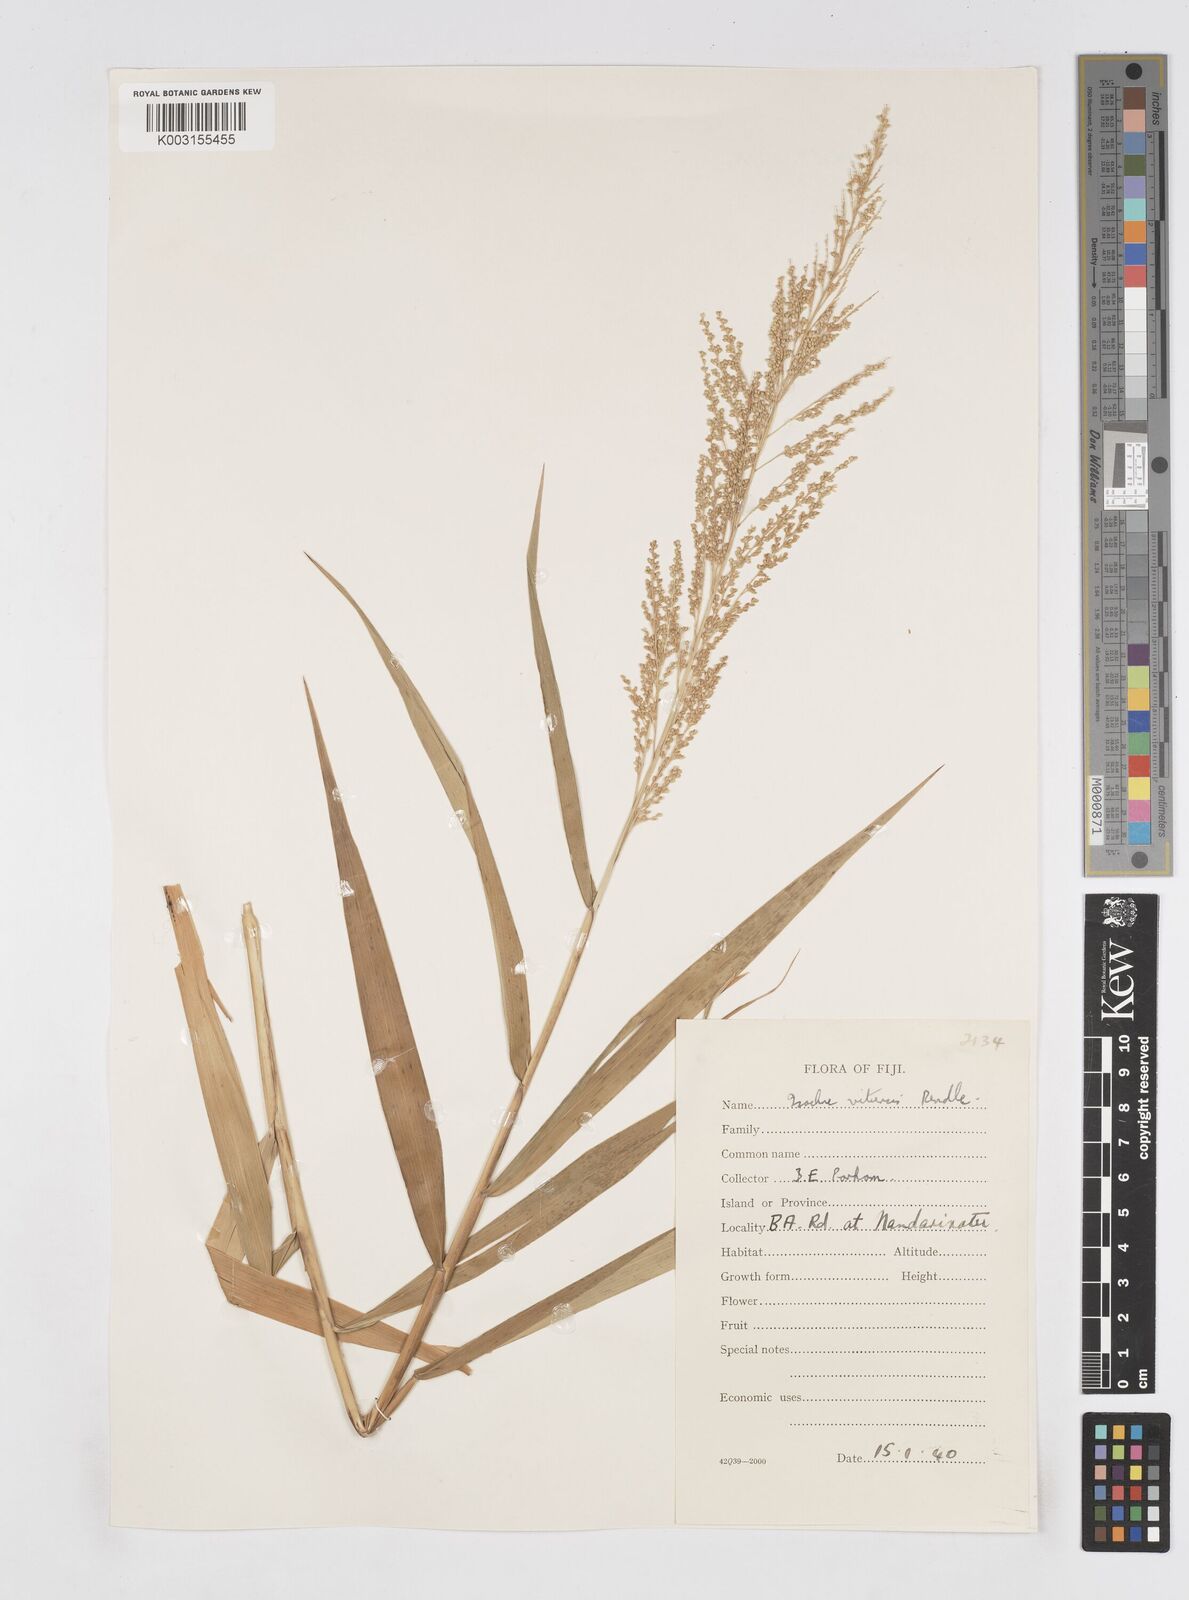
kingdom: Plantae
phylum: Tracheophyta
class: Liliopsida
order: Poales
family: Poaceae
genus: Isachne
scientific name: Isachne vitiensis
